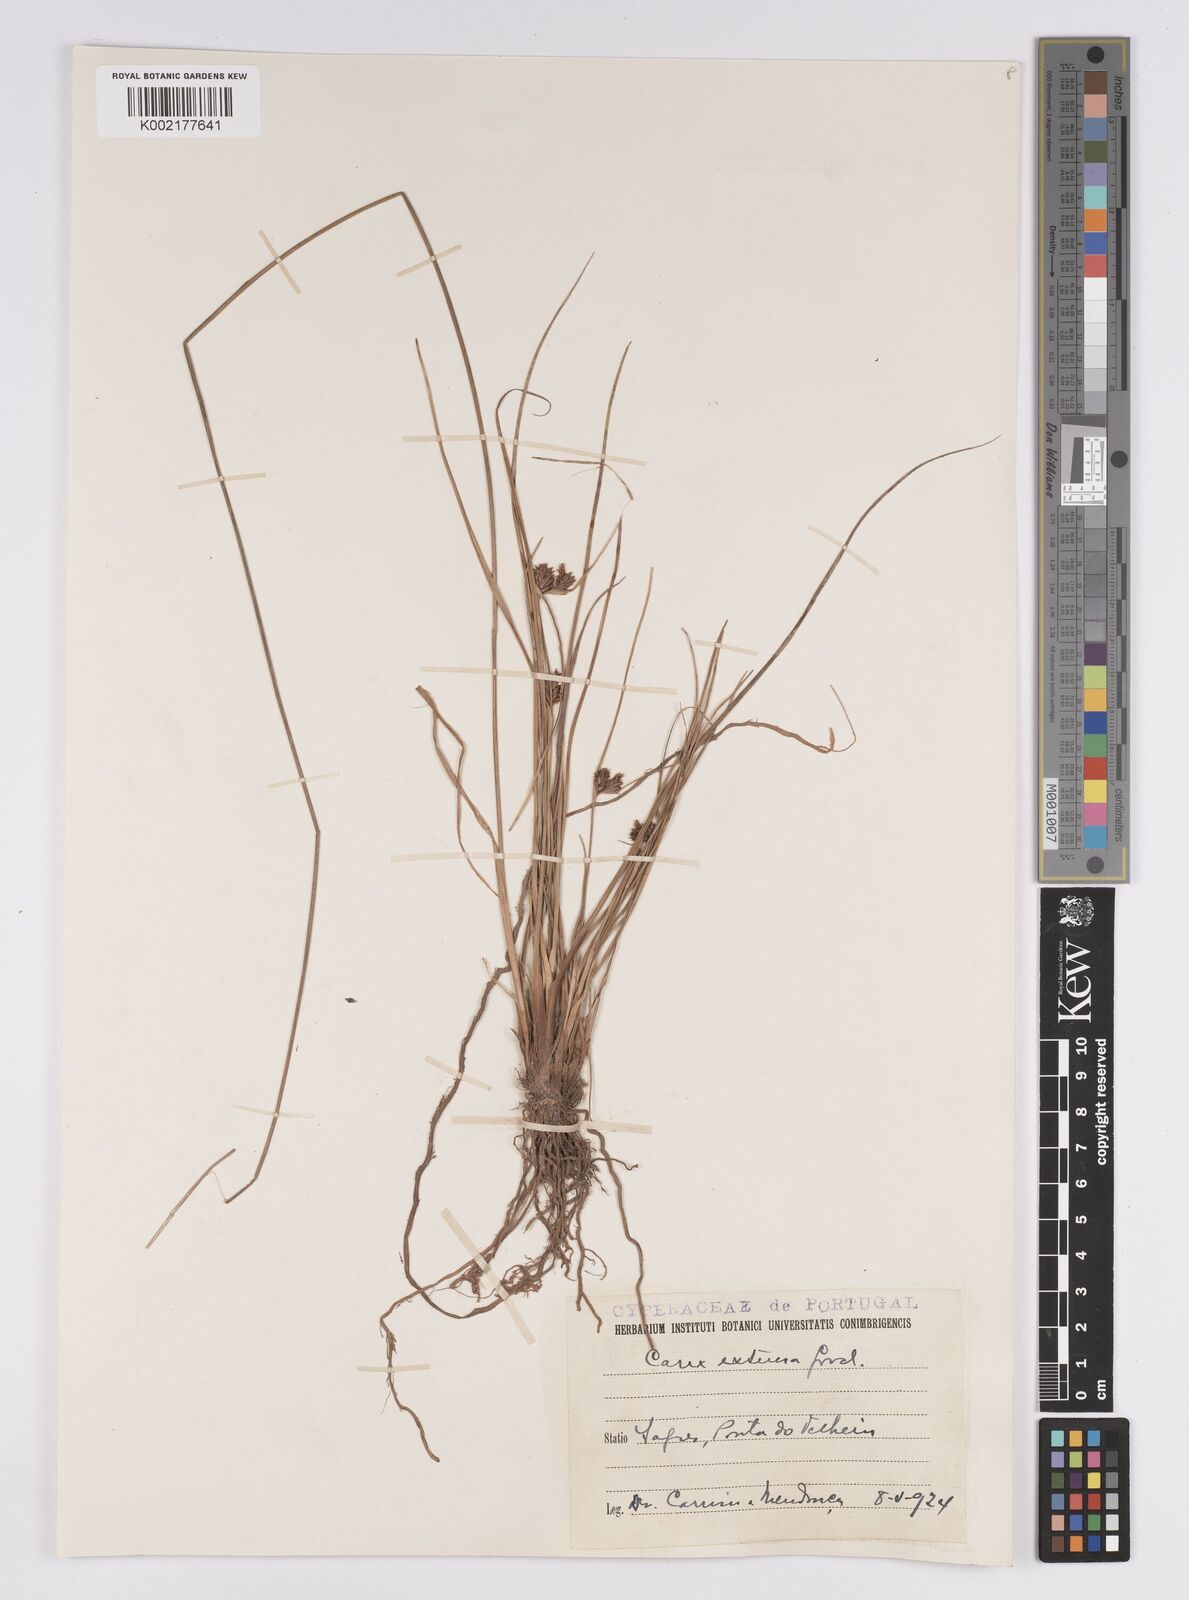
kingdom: Plantae
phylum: Tracheophyta
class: Liliopsida
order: Poales
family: Cyperaceae
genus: Carex
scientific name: Carex extensa
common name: Long-bracted sedge
